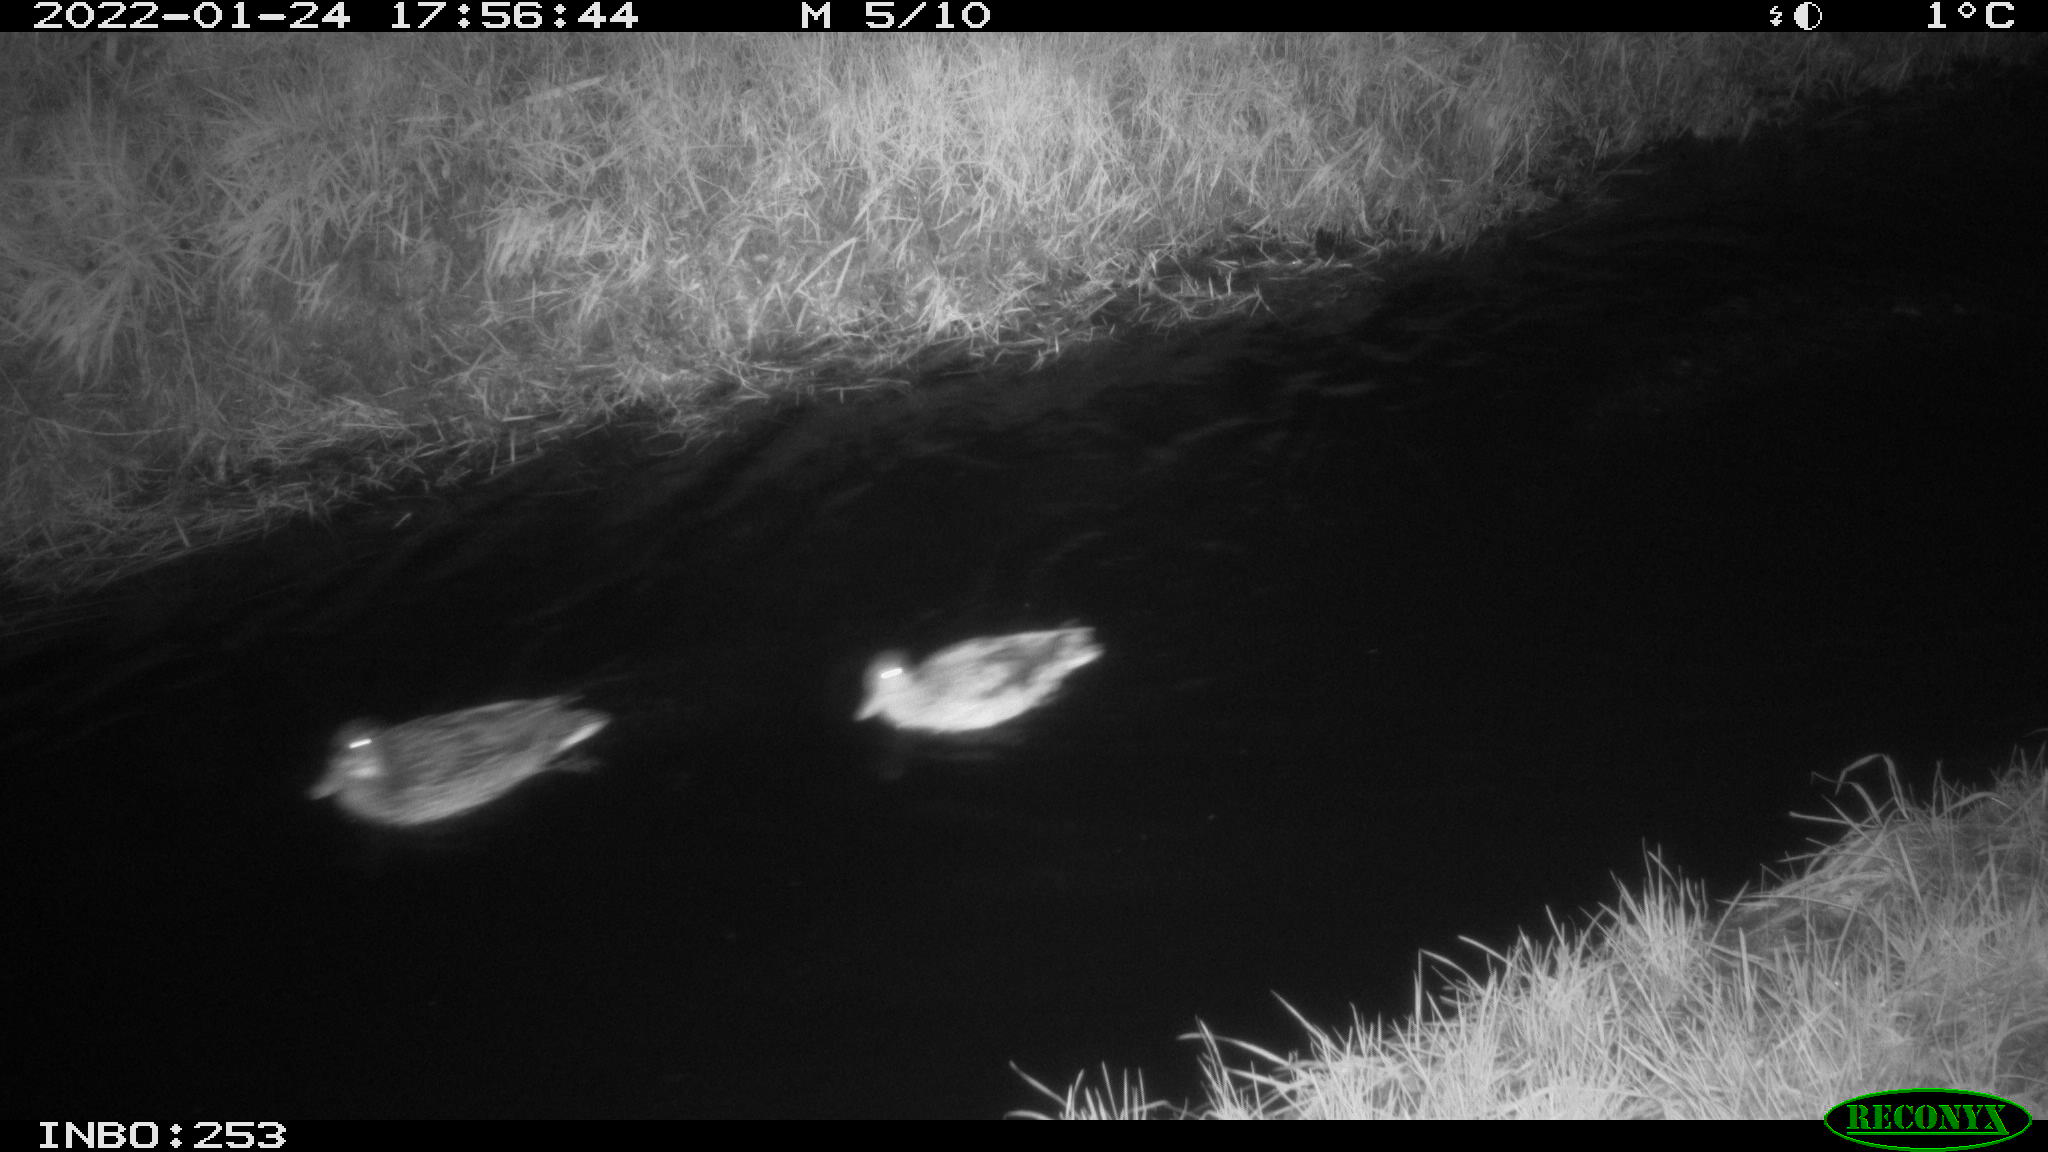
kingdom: Animalia
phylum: Chordata
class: Aves
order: Anseriformes
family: Anatidae
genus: Anas
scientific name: Anas
